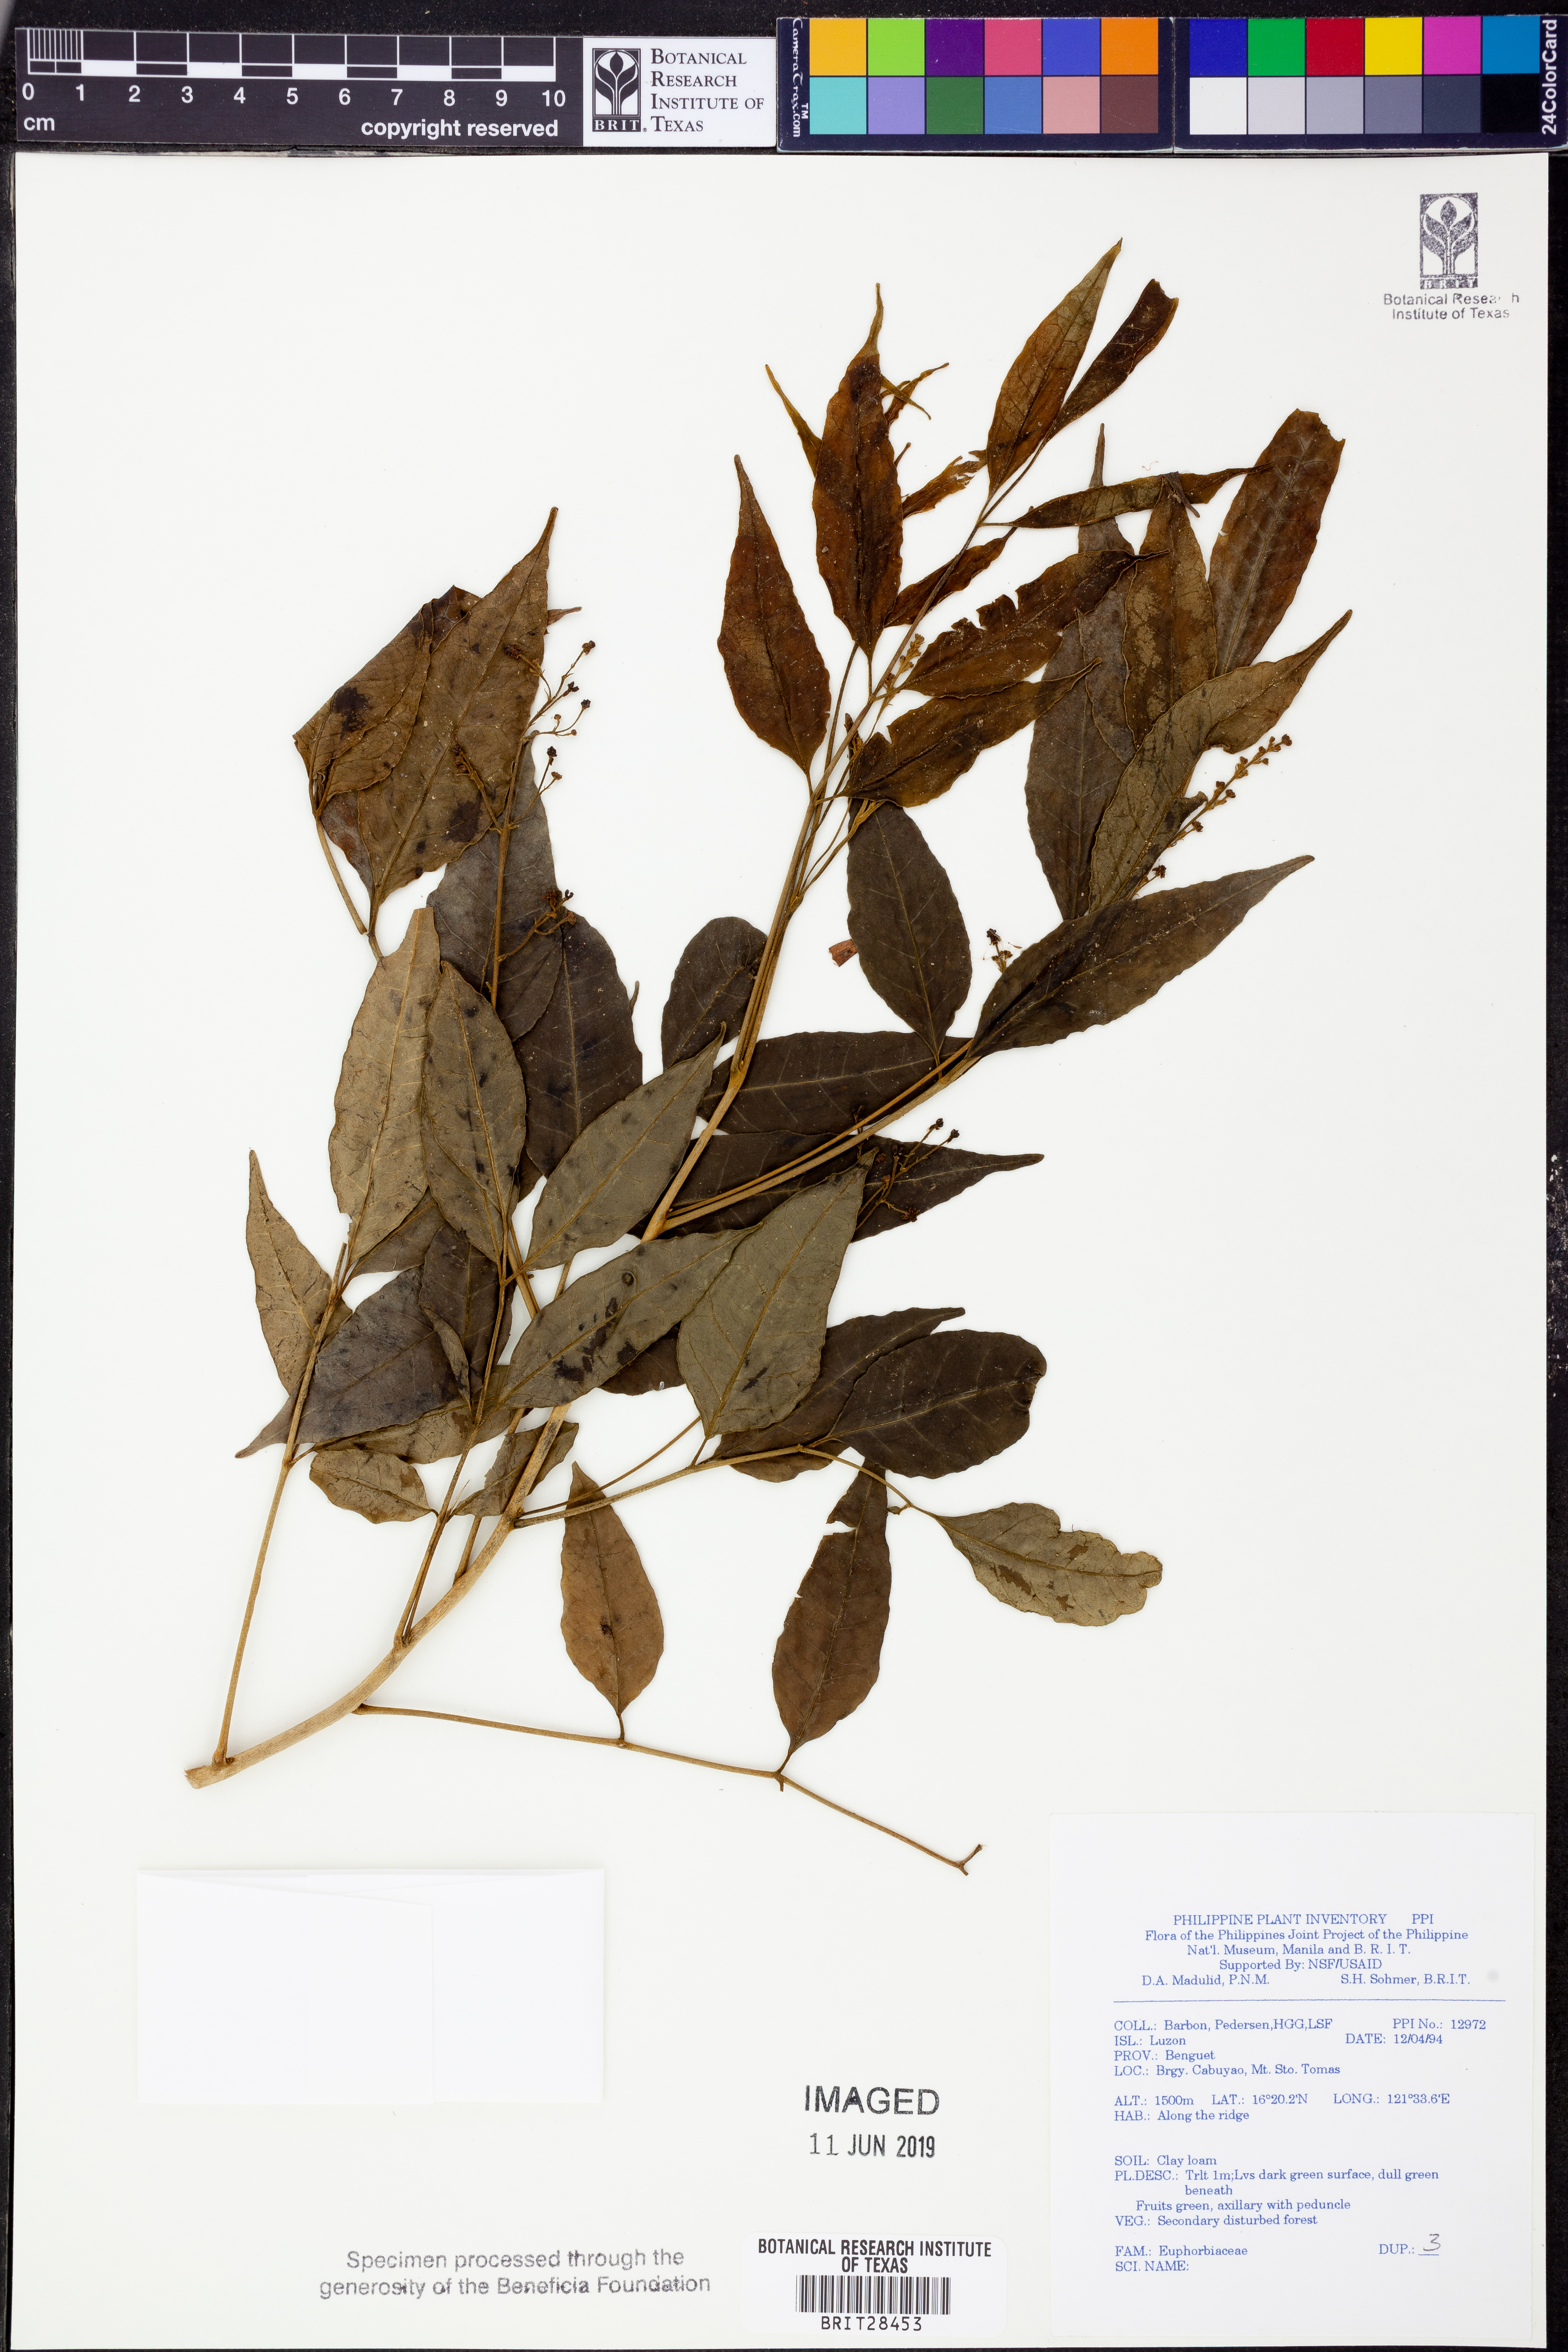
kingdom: Plantae
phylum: Tracheophyta
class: Magnoliopsida
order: Malpighiales
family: Euphorbiaceae
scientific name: Euphorbiaceae
